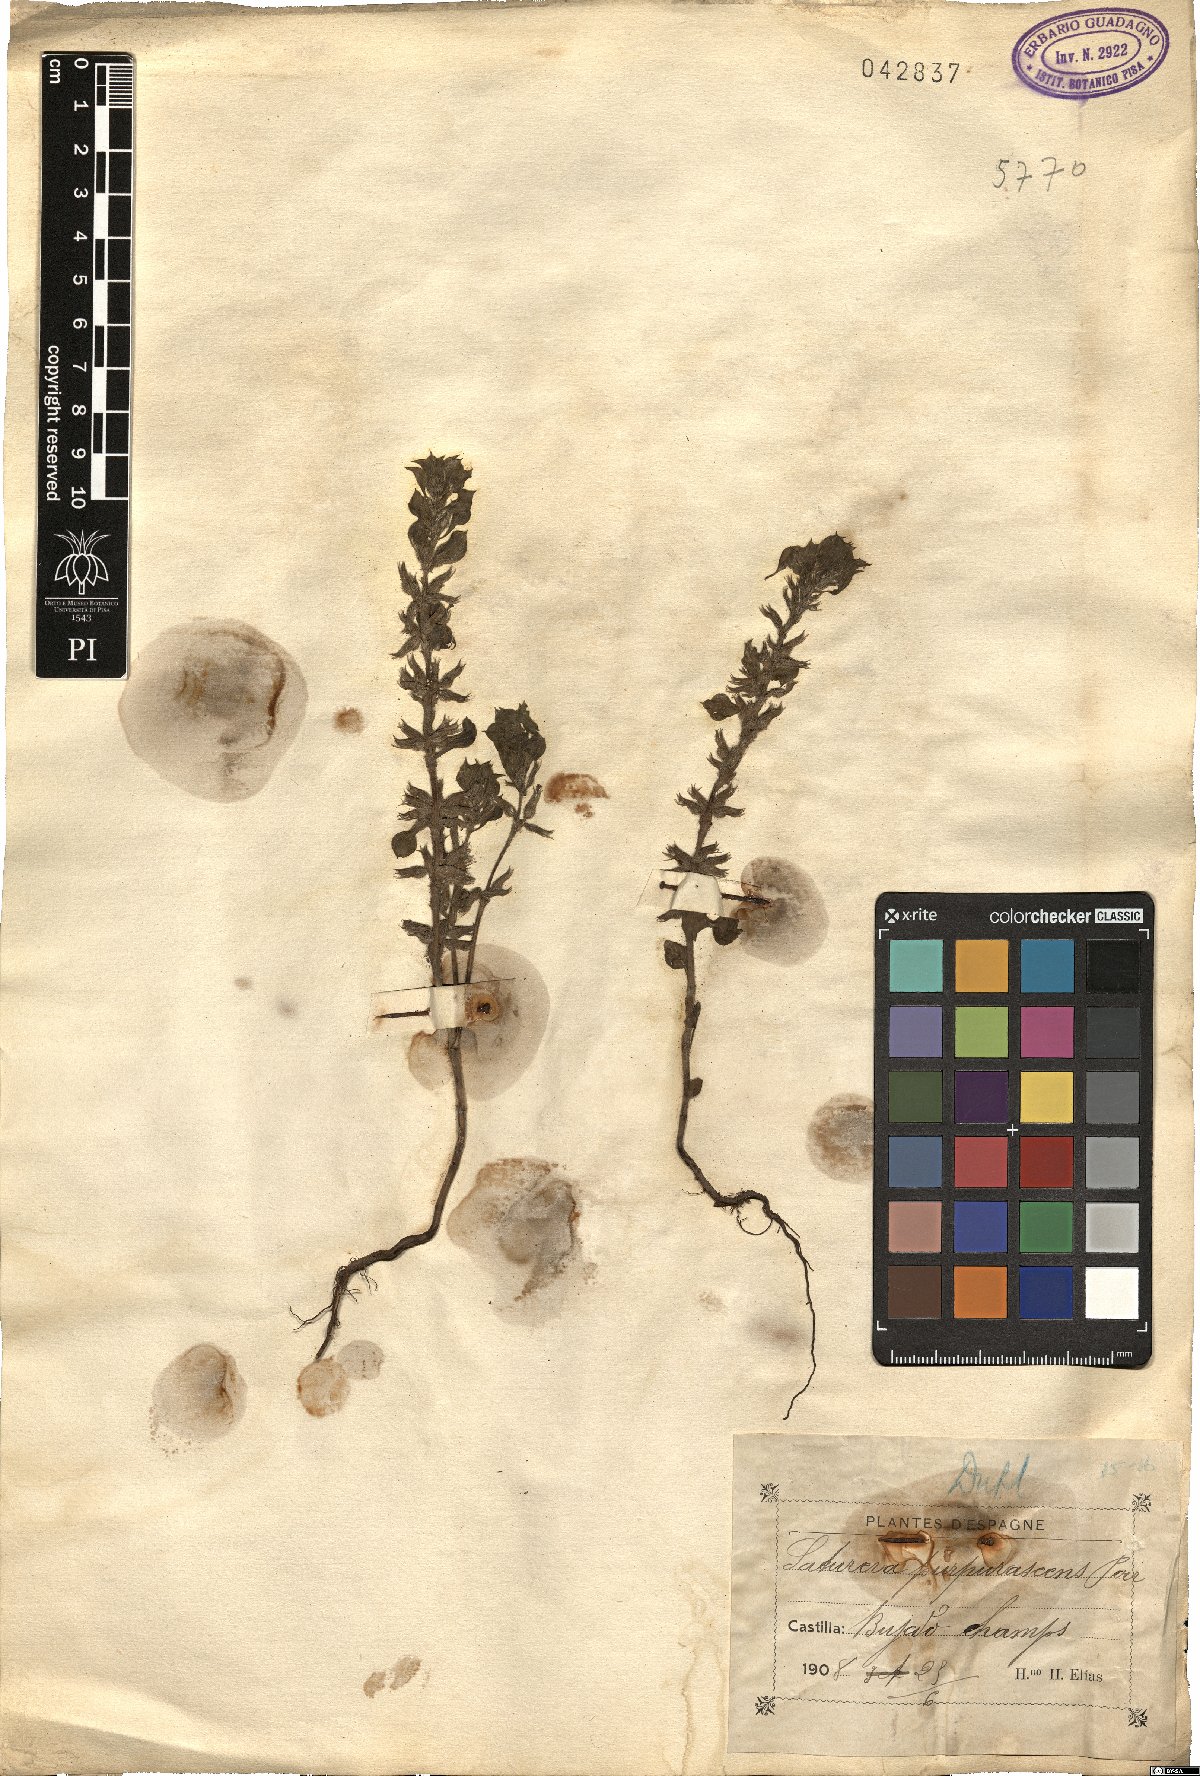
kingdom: Plantae
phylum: Tracheophyta
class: Magnoliopsida
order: Lamiales
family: Lamiaceae
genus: Satureja
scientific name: Satureja
